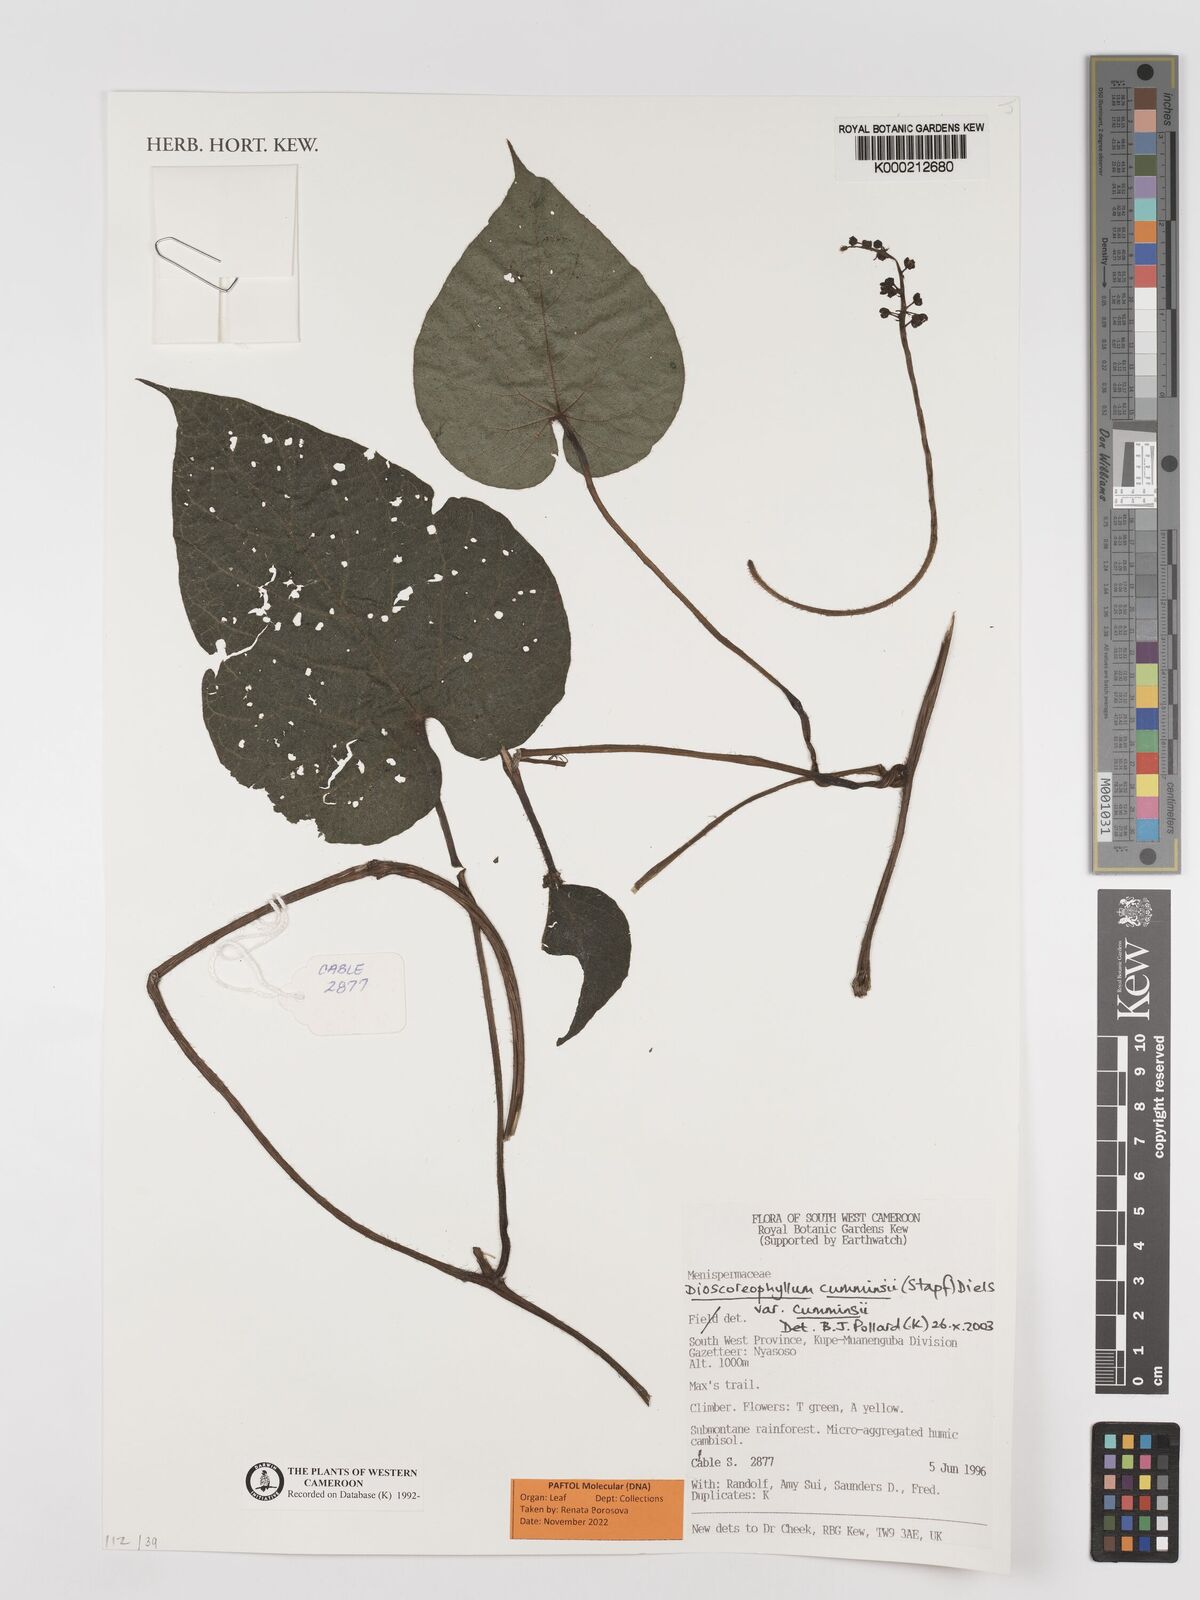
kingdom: Plantae
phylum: Tracheophyta
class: Magnoliopsida
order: Ranunculales
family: Menispermaceae
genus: Dioscoreophyllum
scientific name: Dioscoreophyllum volkensii
